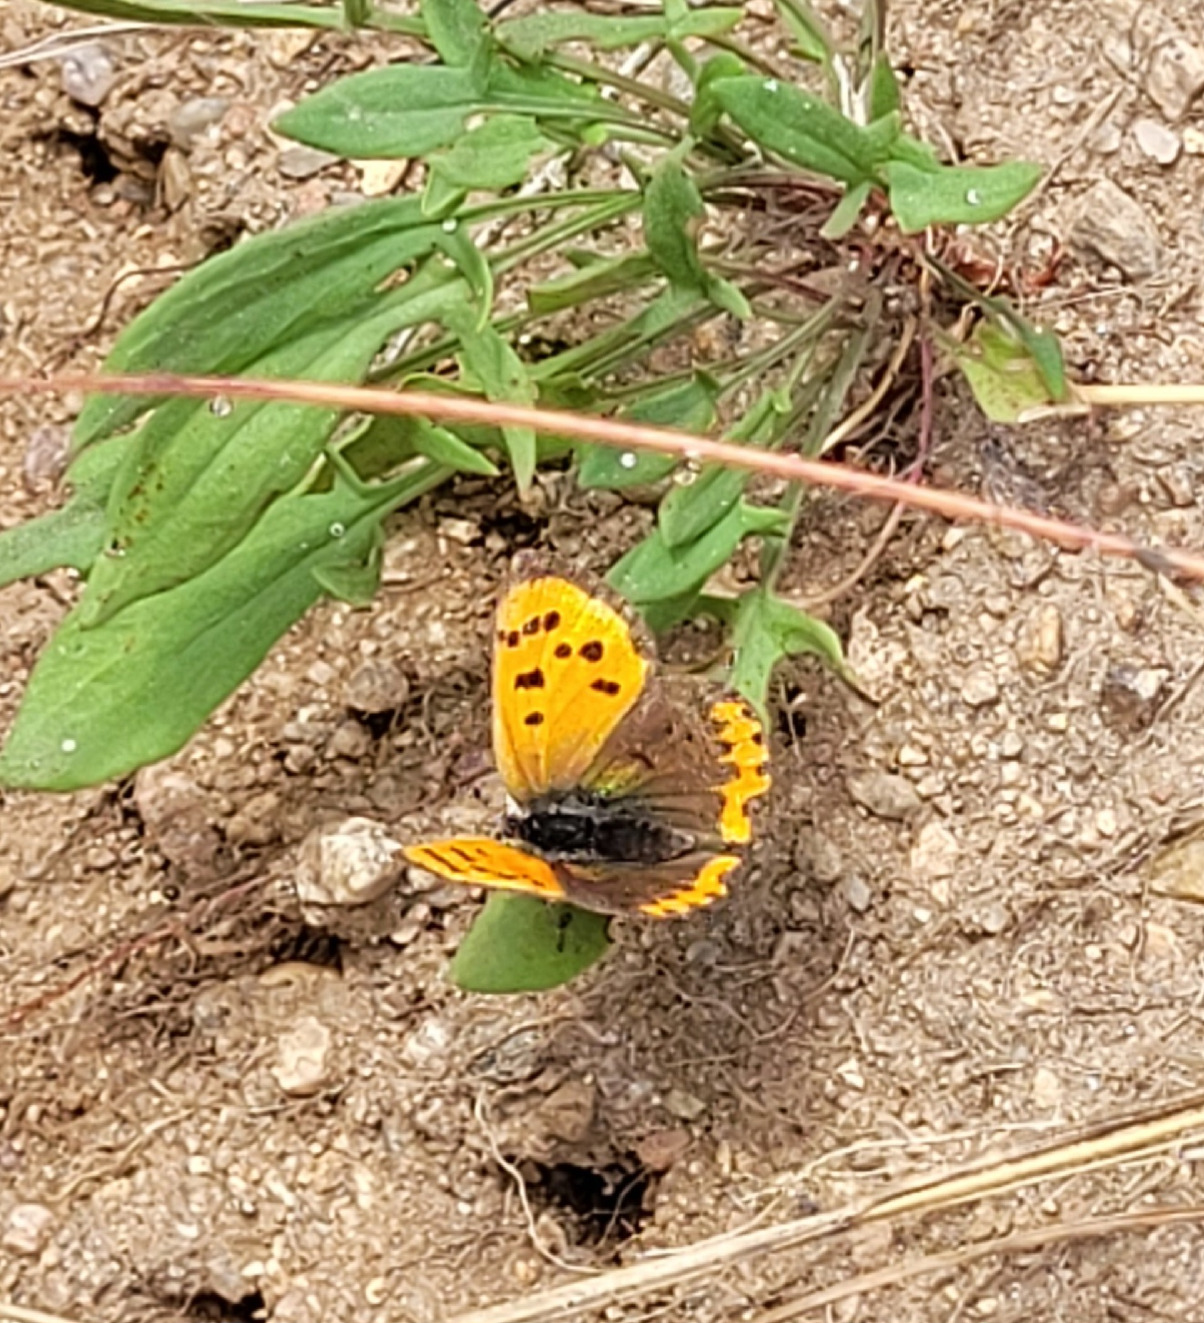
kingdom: Animalia
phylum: Arthropoda
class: Insecta
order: Lepidoptera
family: Lycaenidae
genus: Lycaena
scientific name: Lycaena phlaeas
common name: Lille ildfugl
